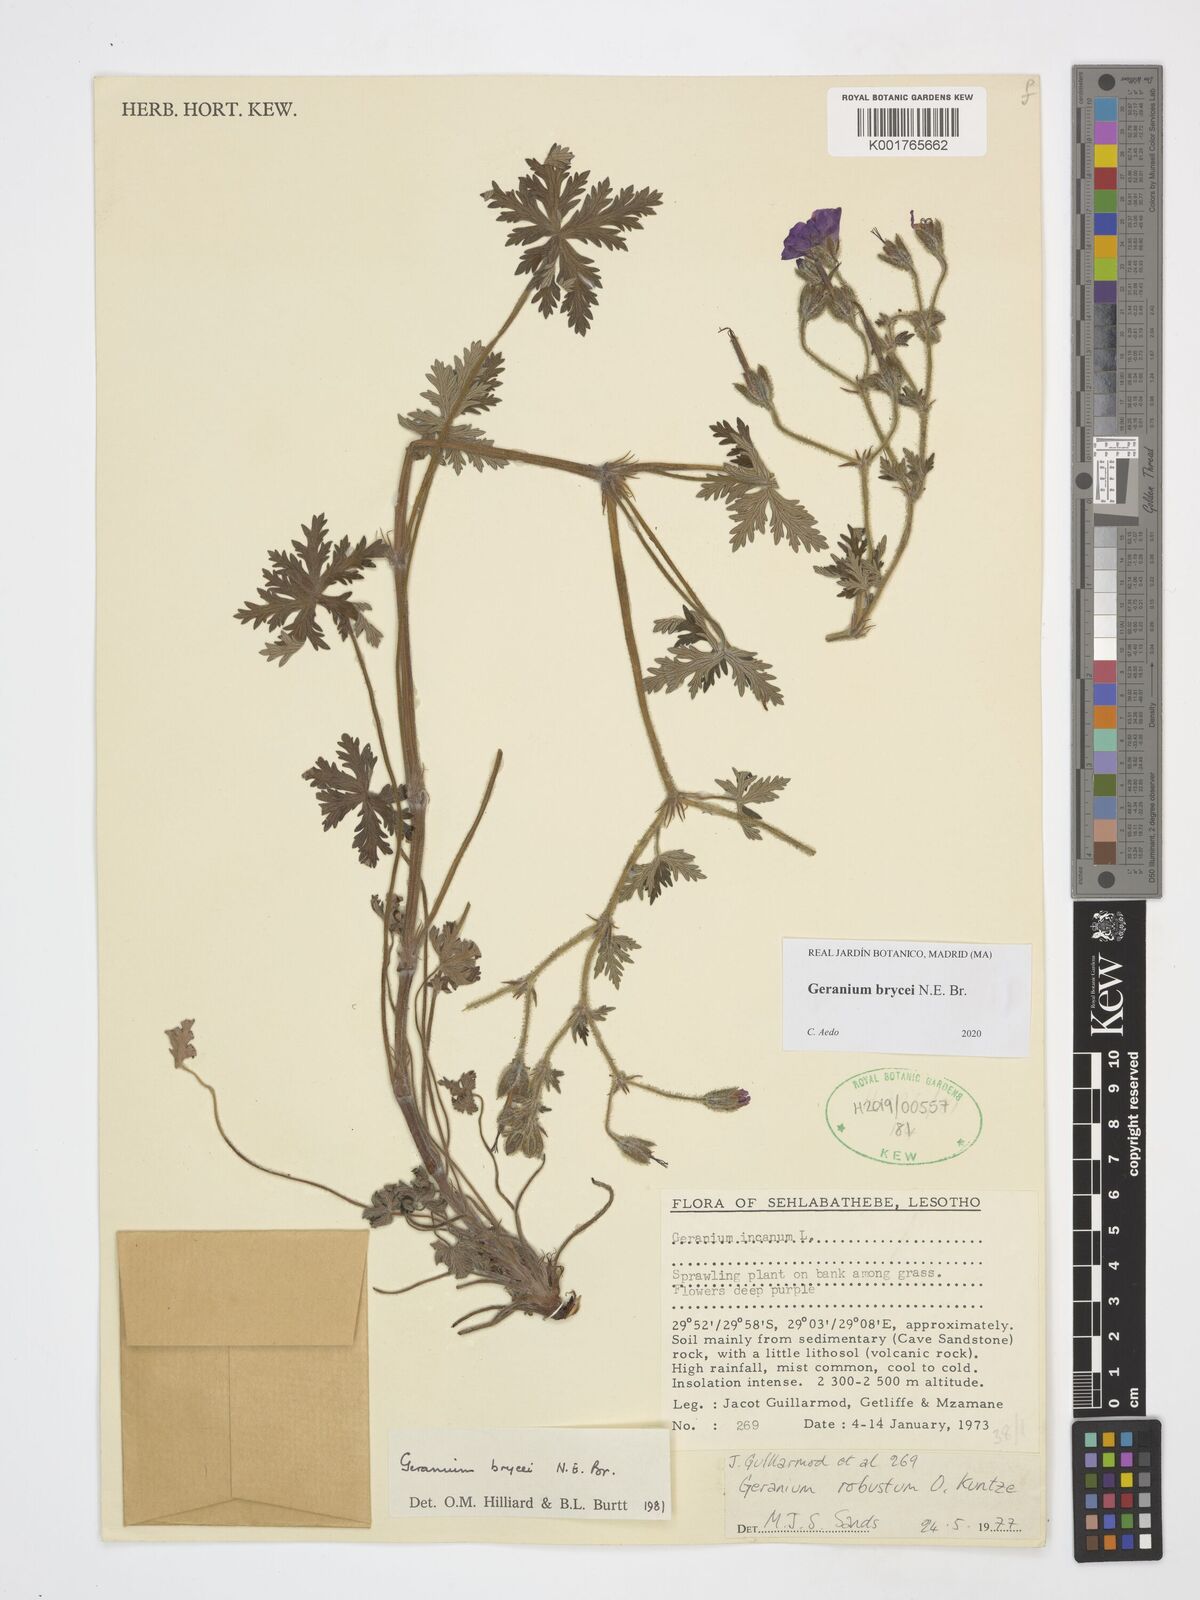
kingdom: Plantae
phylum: Tracheophyta
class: Magnoliopsida
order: Geraniales
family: Geraniaceae
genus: Geranium
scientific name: Geranium brycei
